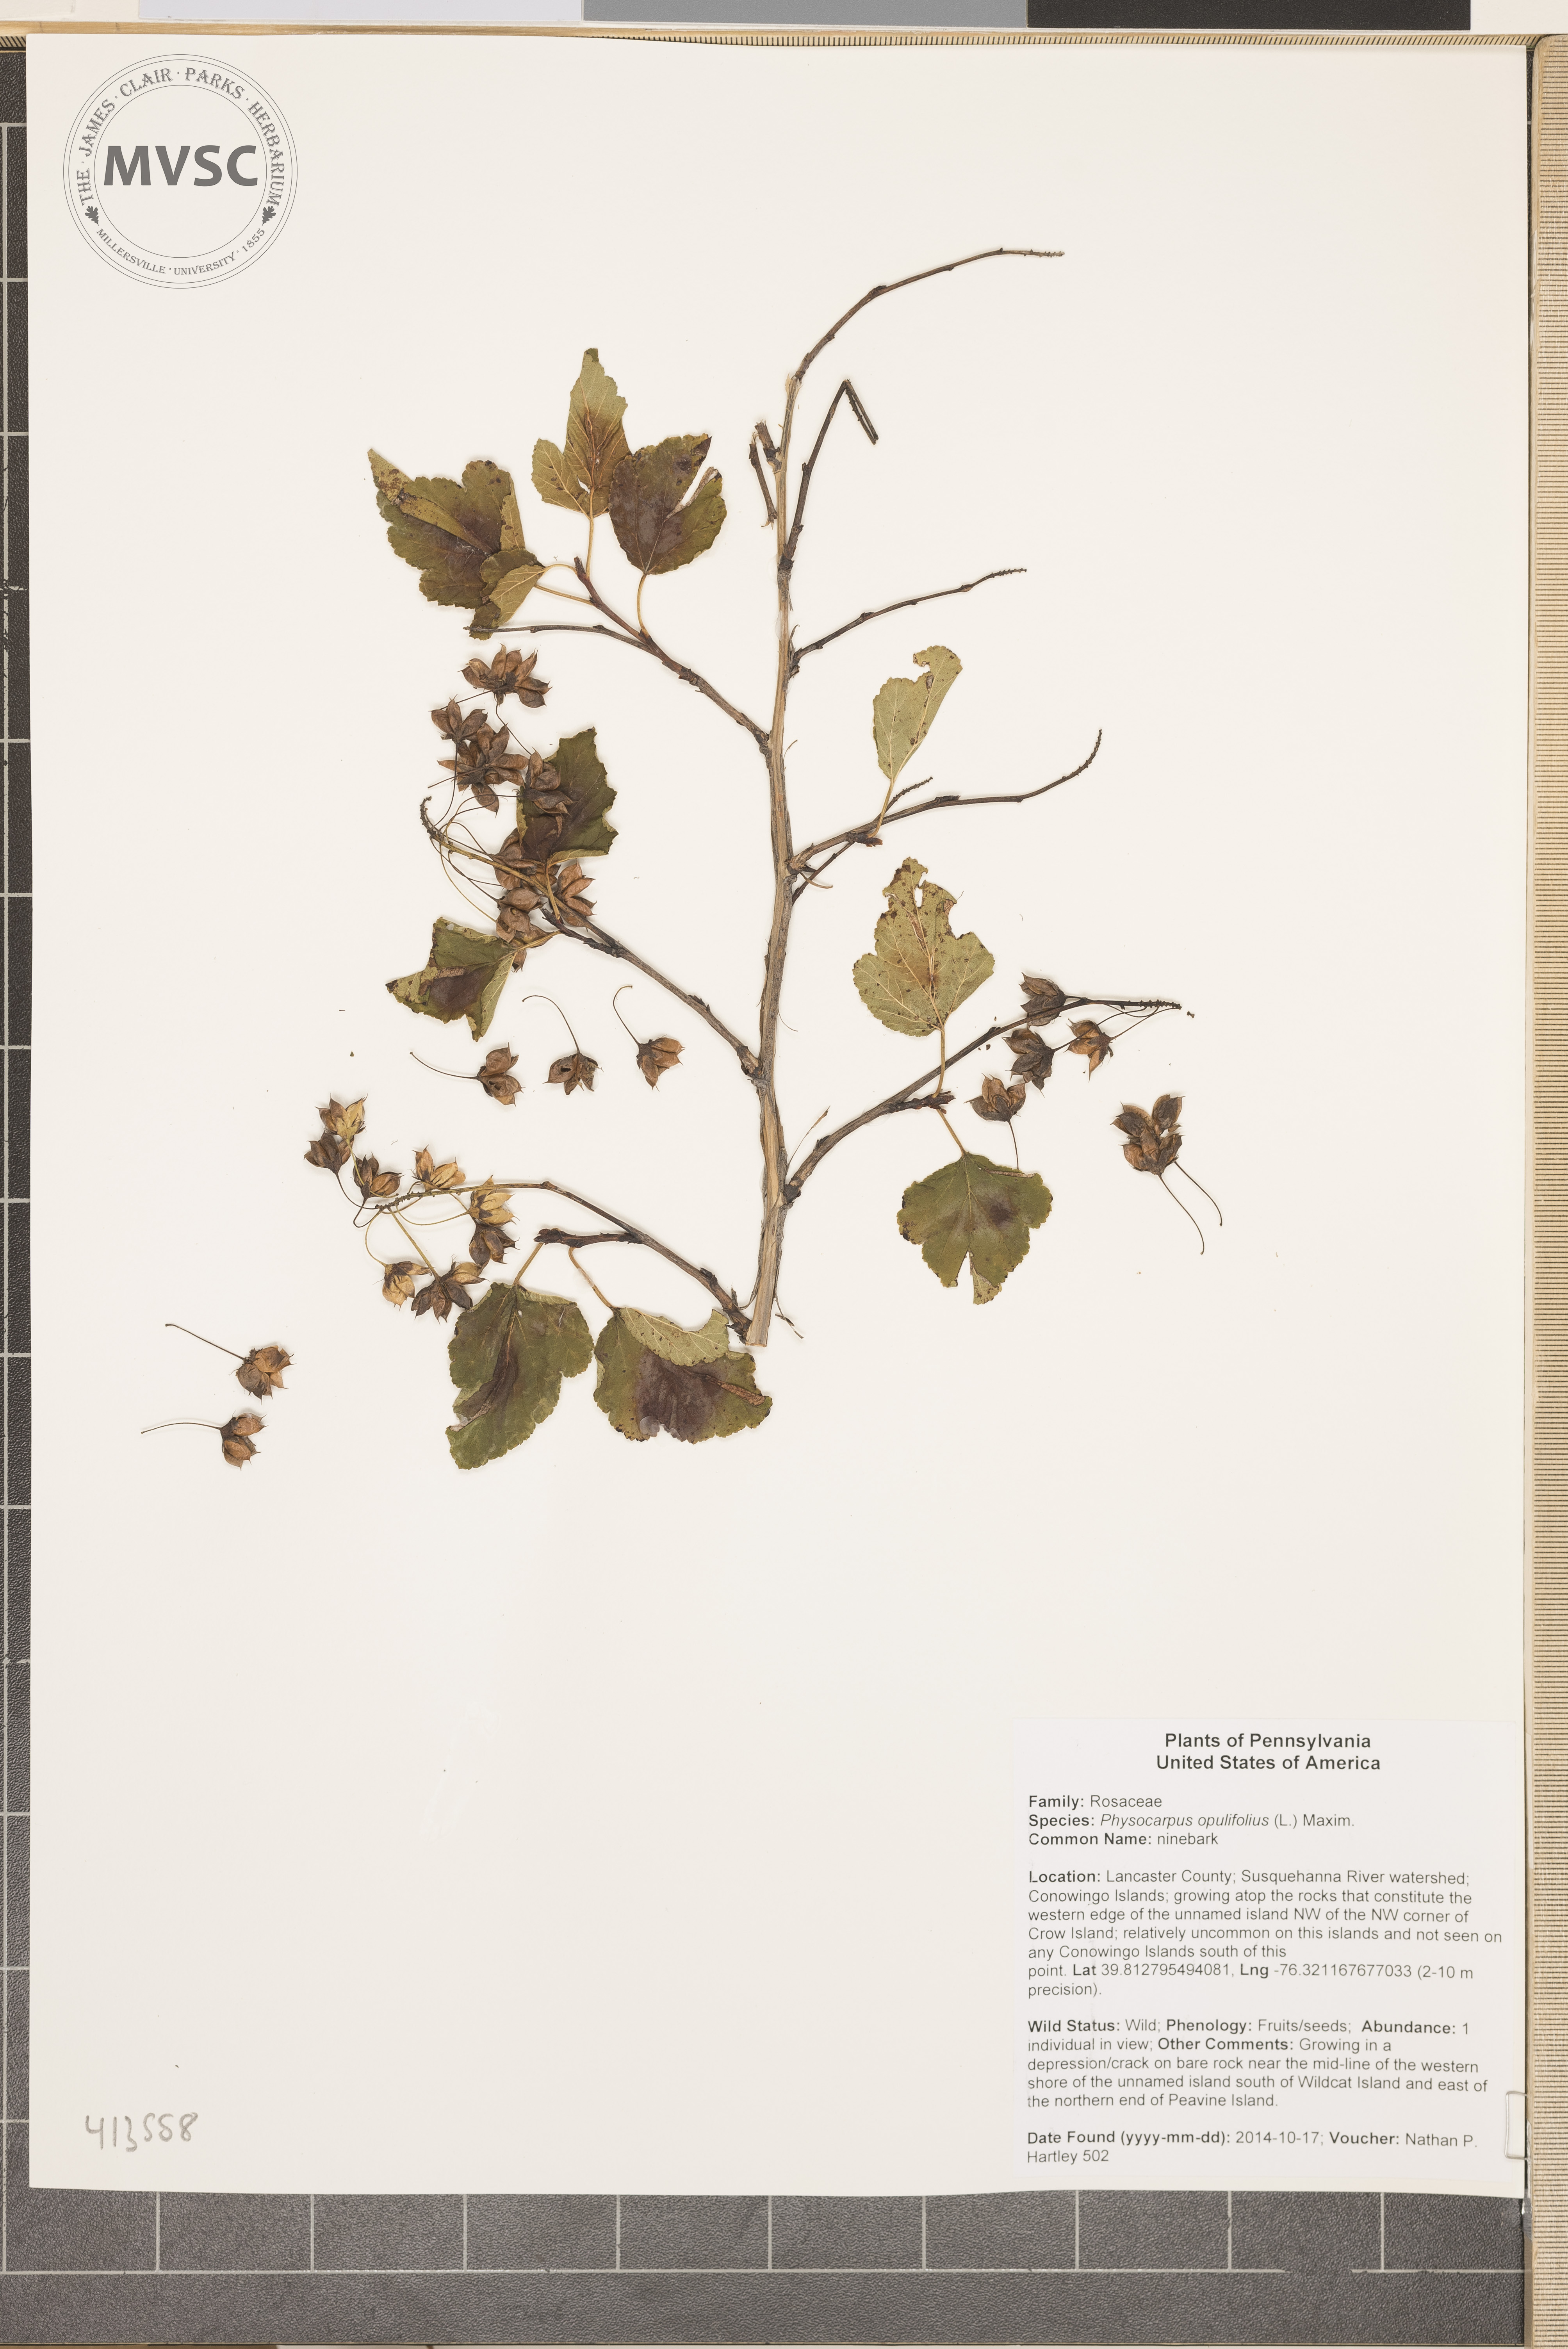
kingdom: Plantae
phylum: Tracheophyta
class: Magnoliopsida
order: Rosales
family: Rosaceae
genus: Physocarpus
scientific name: Physocarpus opulifolius
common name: ninebark
